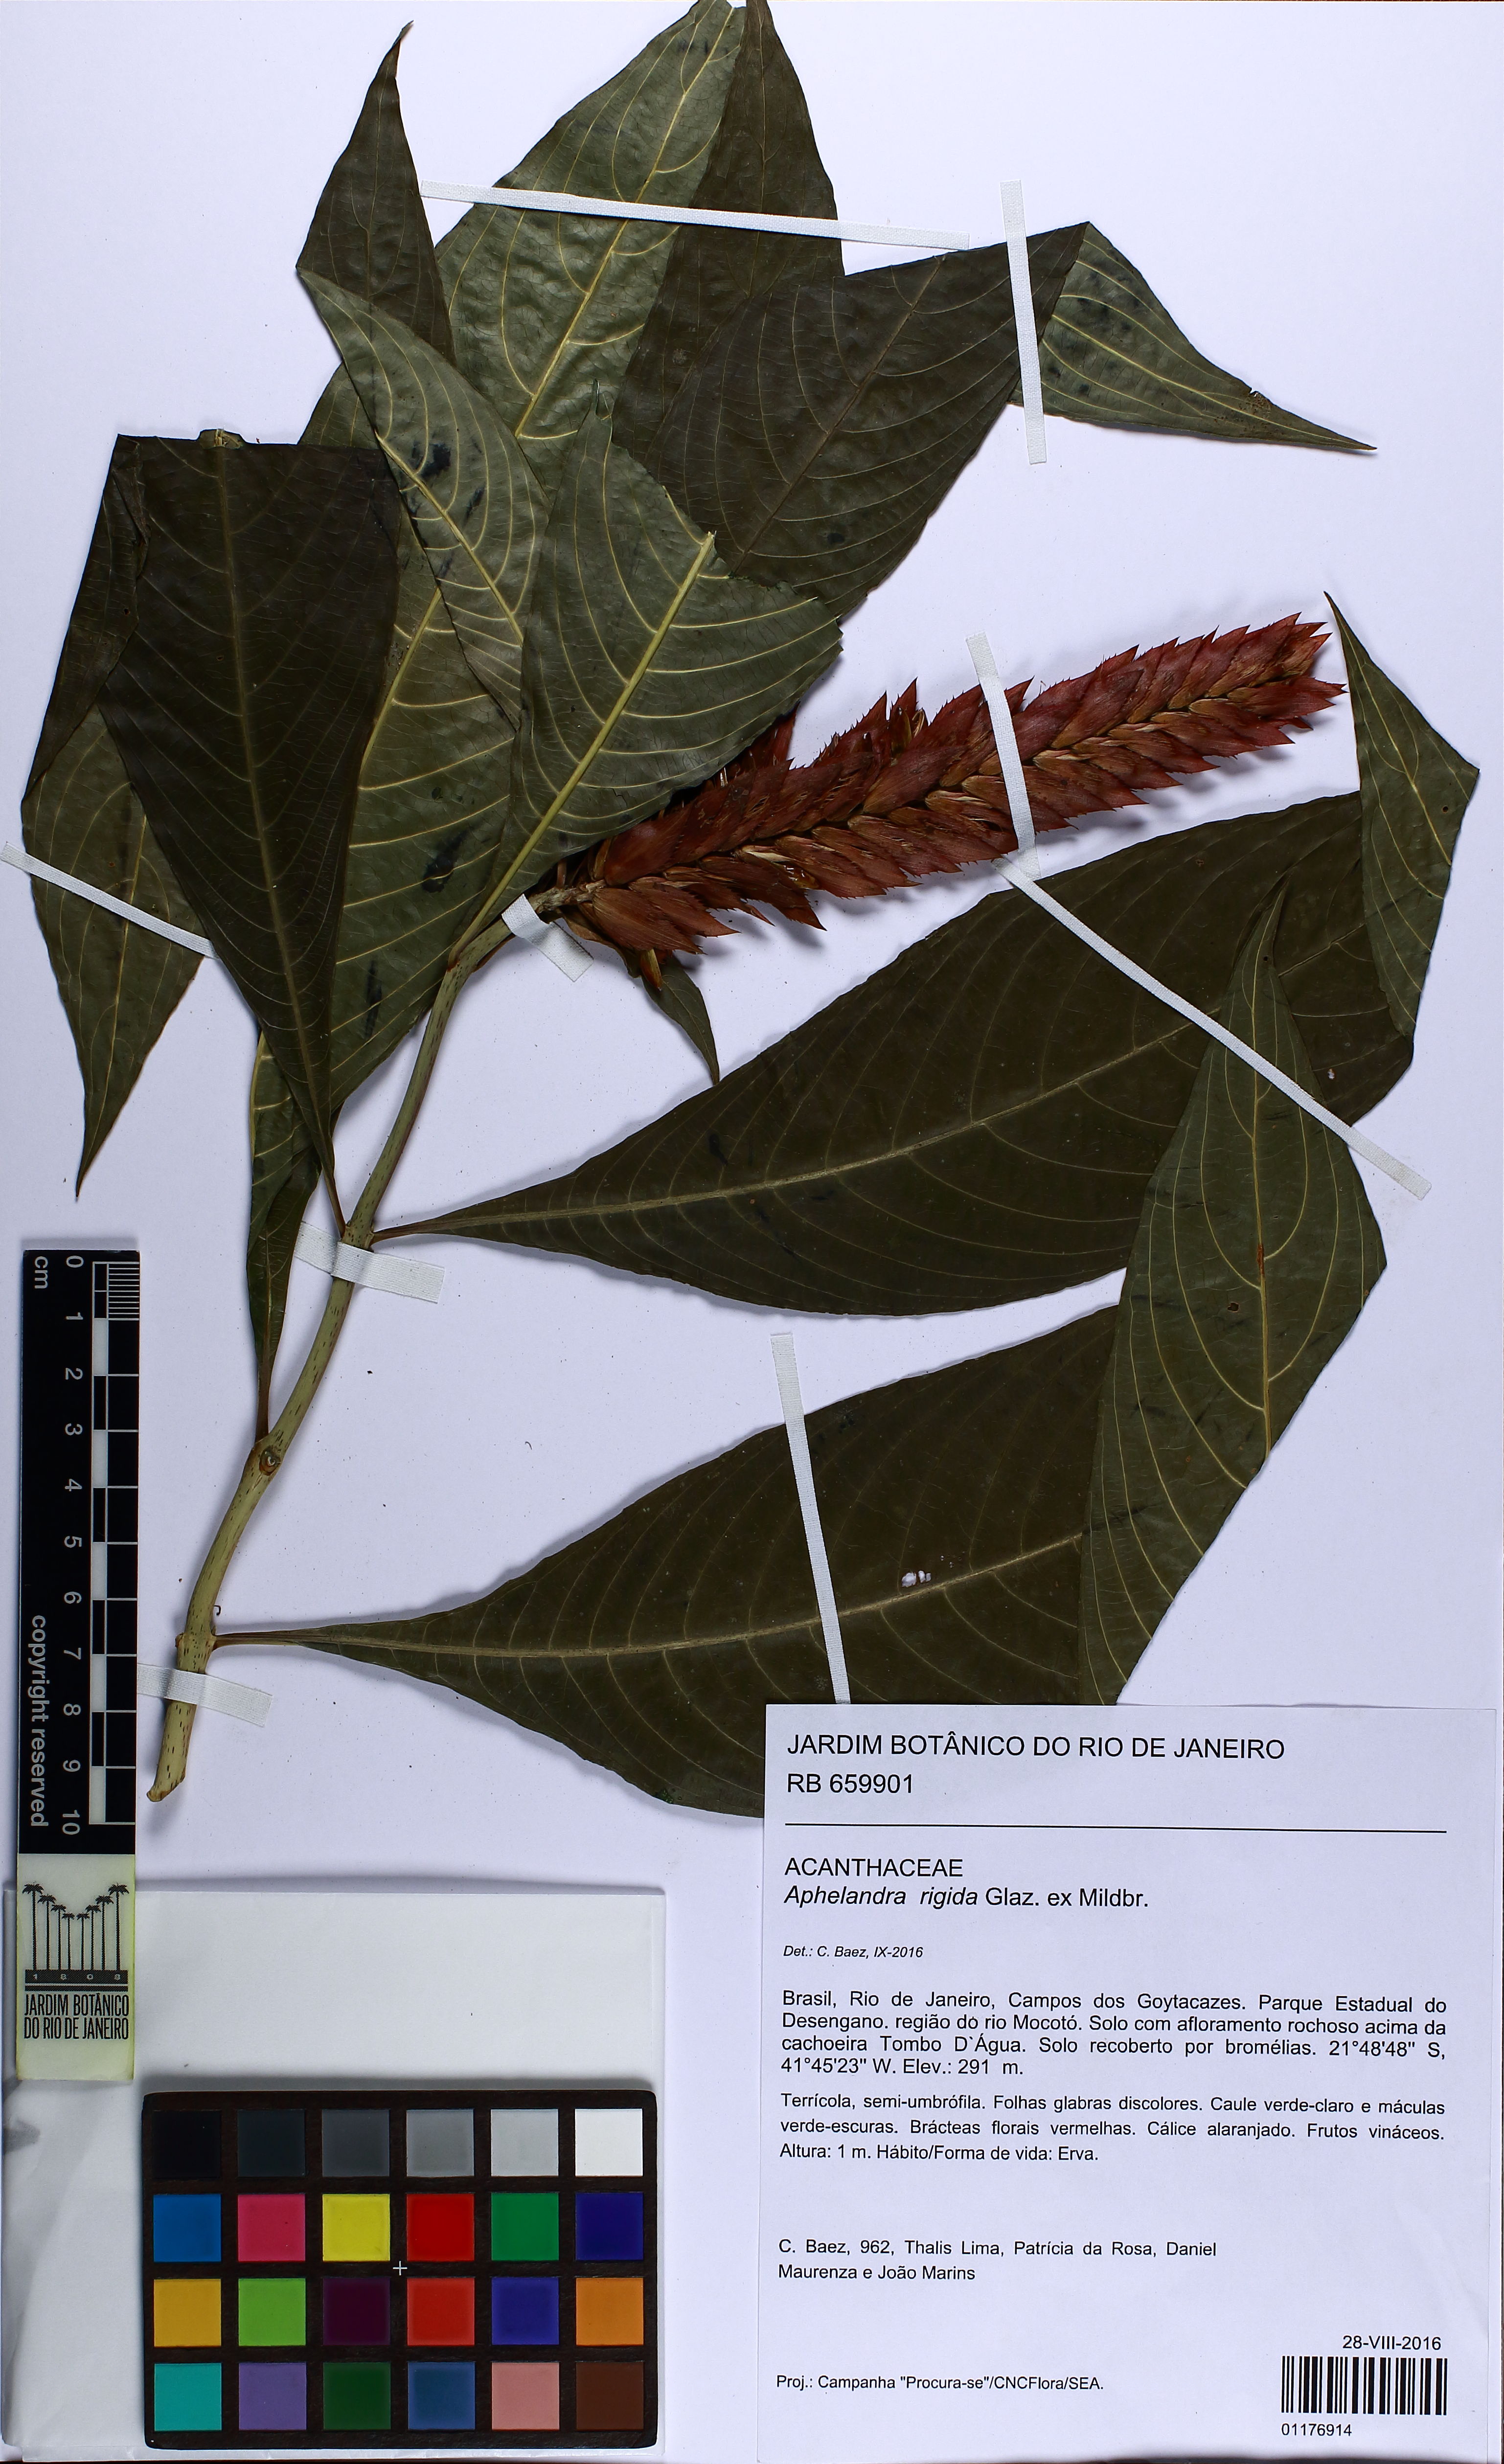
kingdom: Plantae
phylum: Tracheophyta
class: Magnoliopsida
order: Lamiales
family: Acanthaceae
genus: Aphelandra
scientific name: Aphelandra rigida
